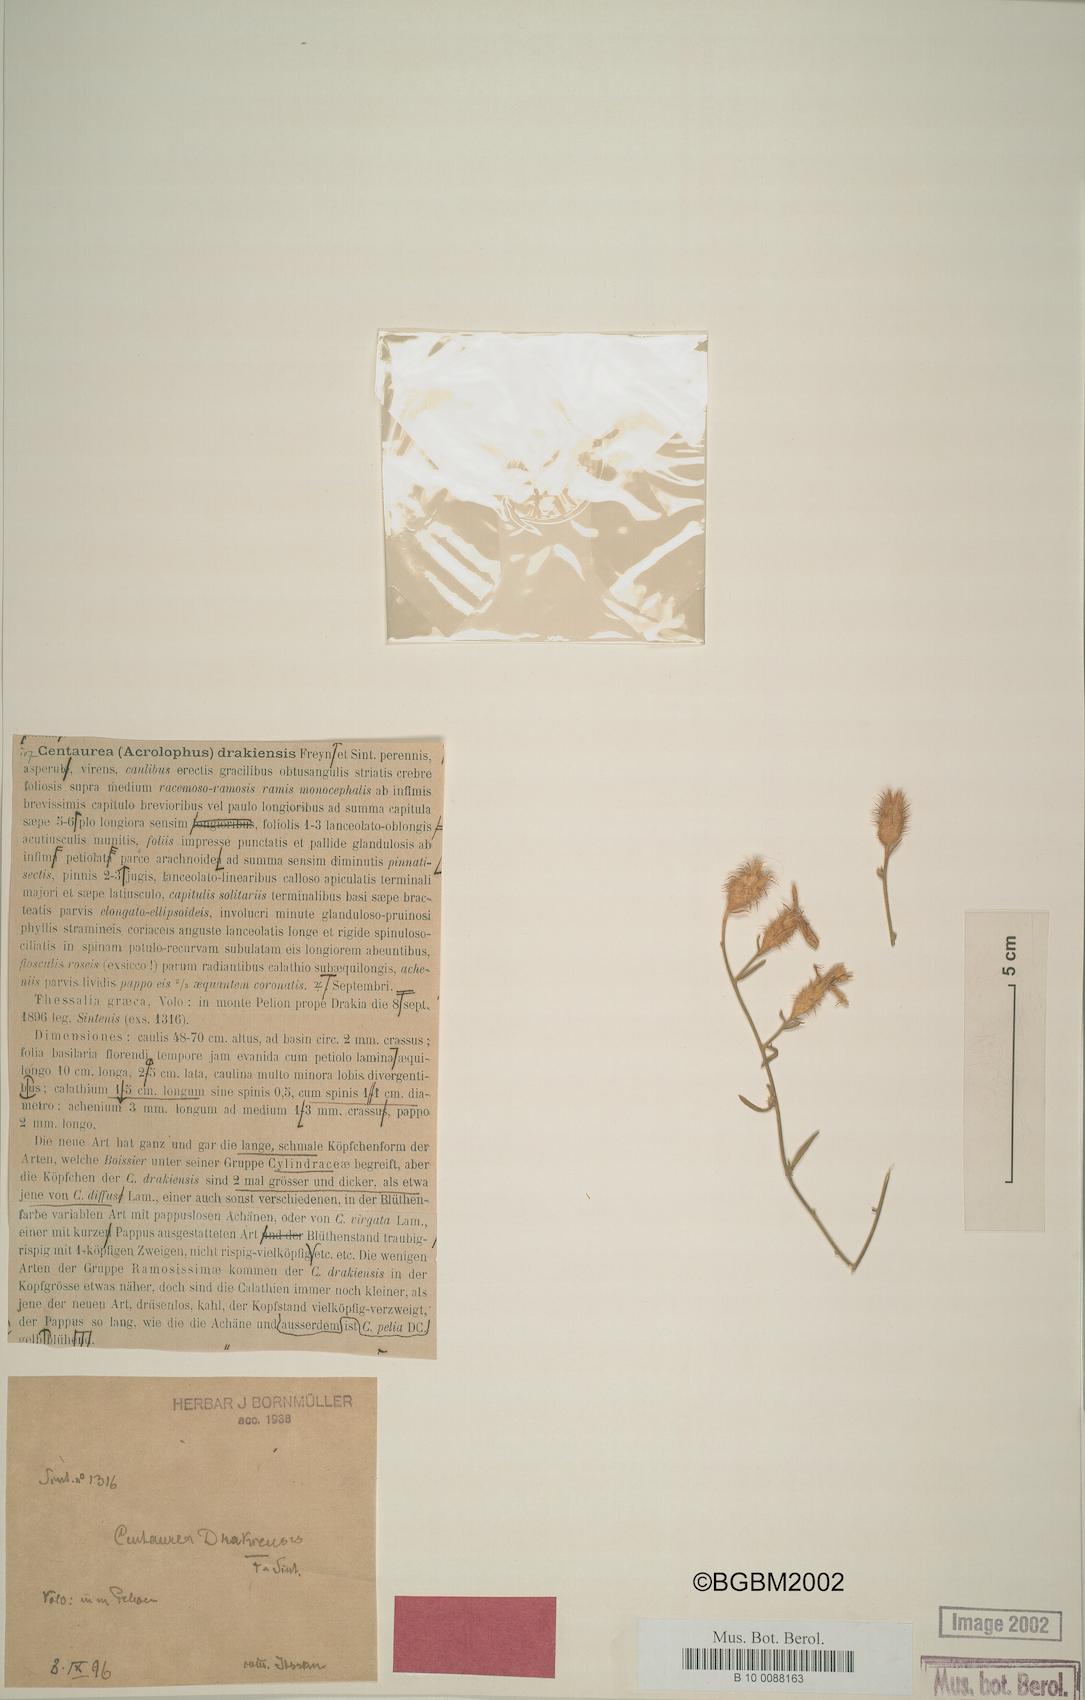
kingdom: Plantae
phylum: Tracheophyta
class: Magnoliopsida
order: Asterales
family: Asteraceae
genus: Centaurea
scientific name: Centaurea thessala
